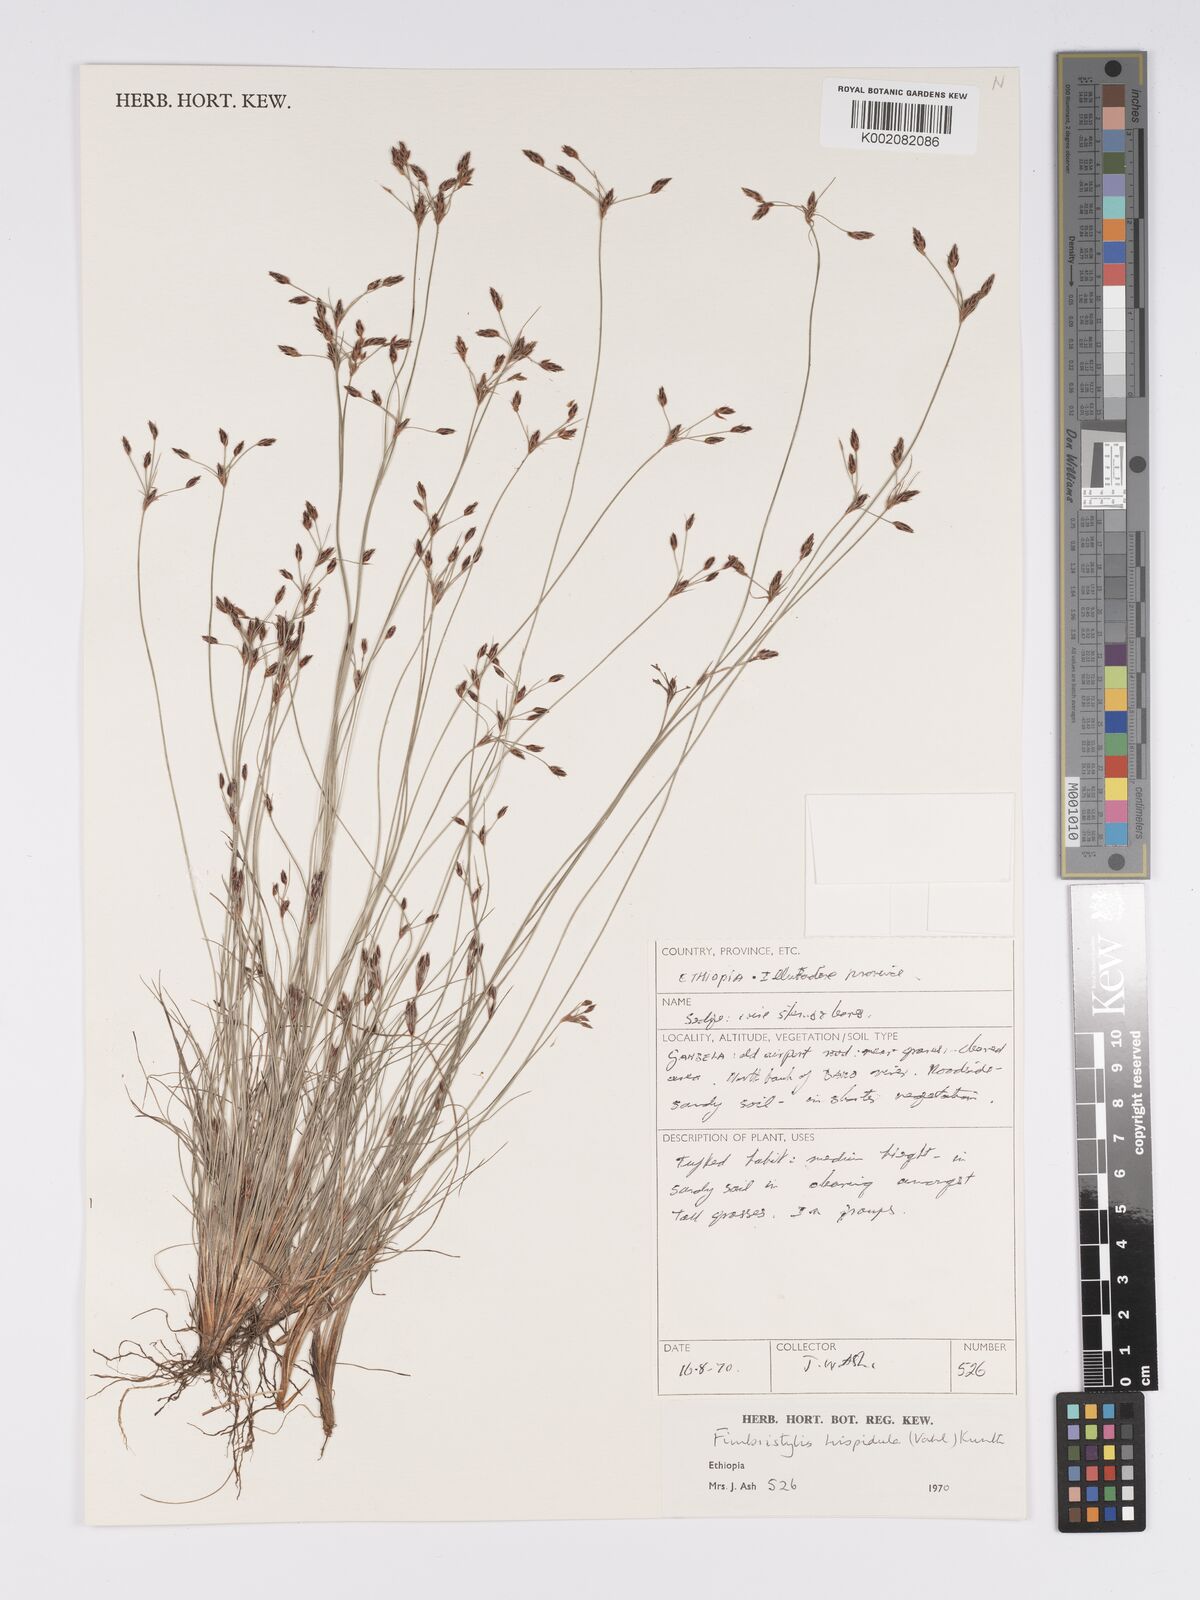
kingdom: Plantae
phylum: Tracheophyta
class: Liliopsida
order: Poales
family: Cyperaceae
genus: Bulbostylis
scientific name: Bulbostylis hispidula
